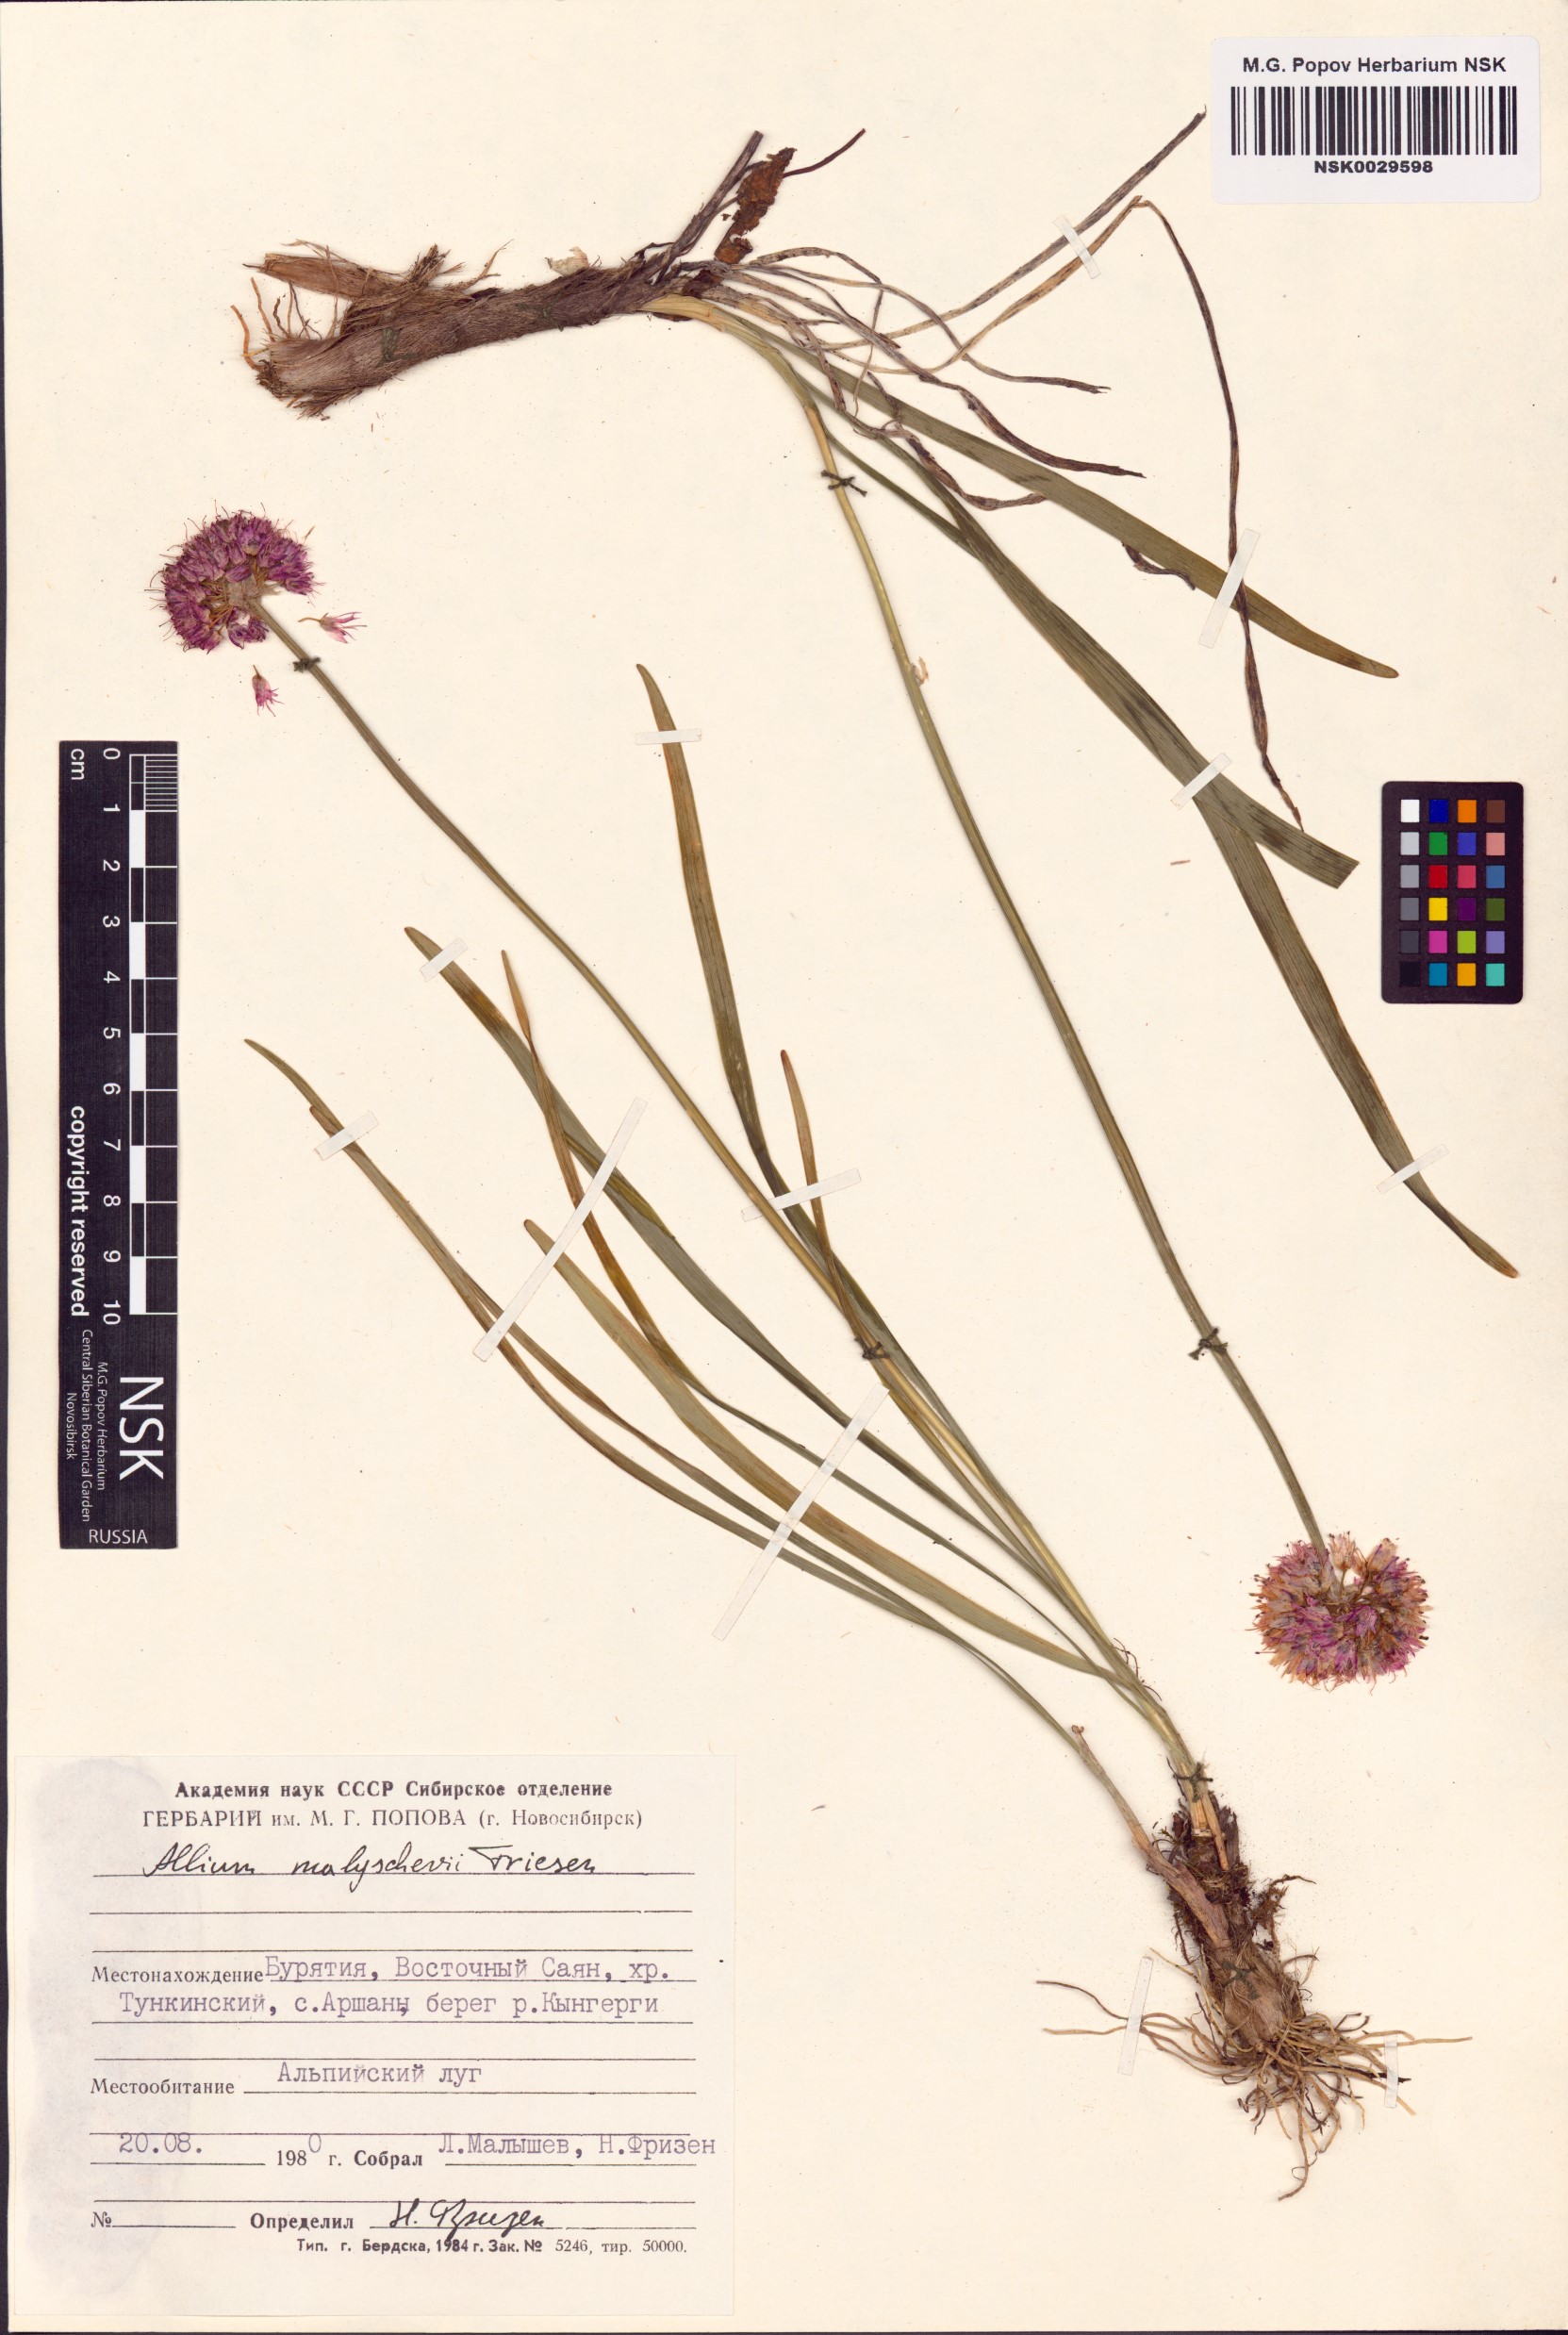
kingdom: Plantae
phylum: Tracheophyta
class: Liliopsida
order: Asparagales
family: Amaryllidaceae
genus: Allium
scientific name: Allium malyschevii
